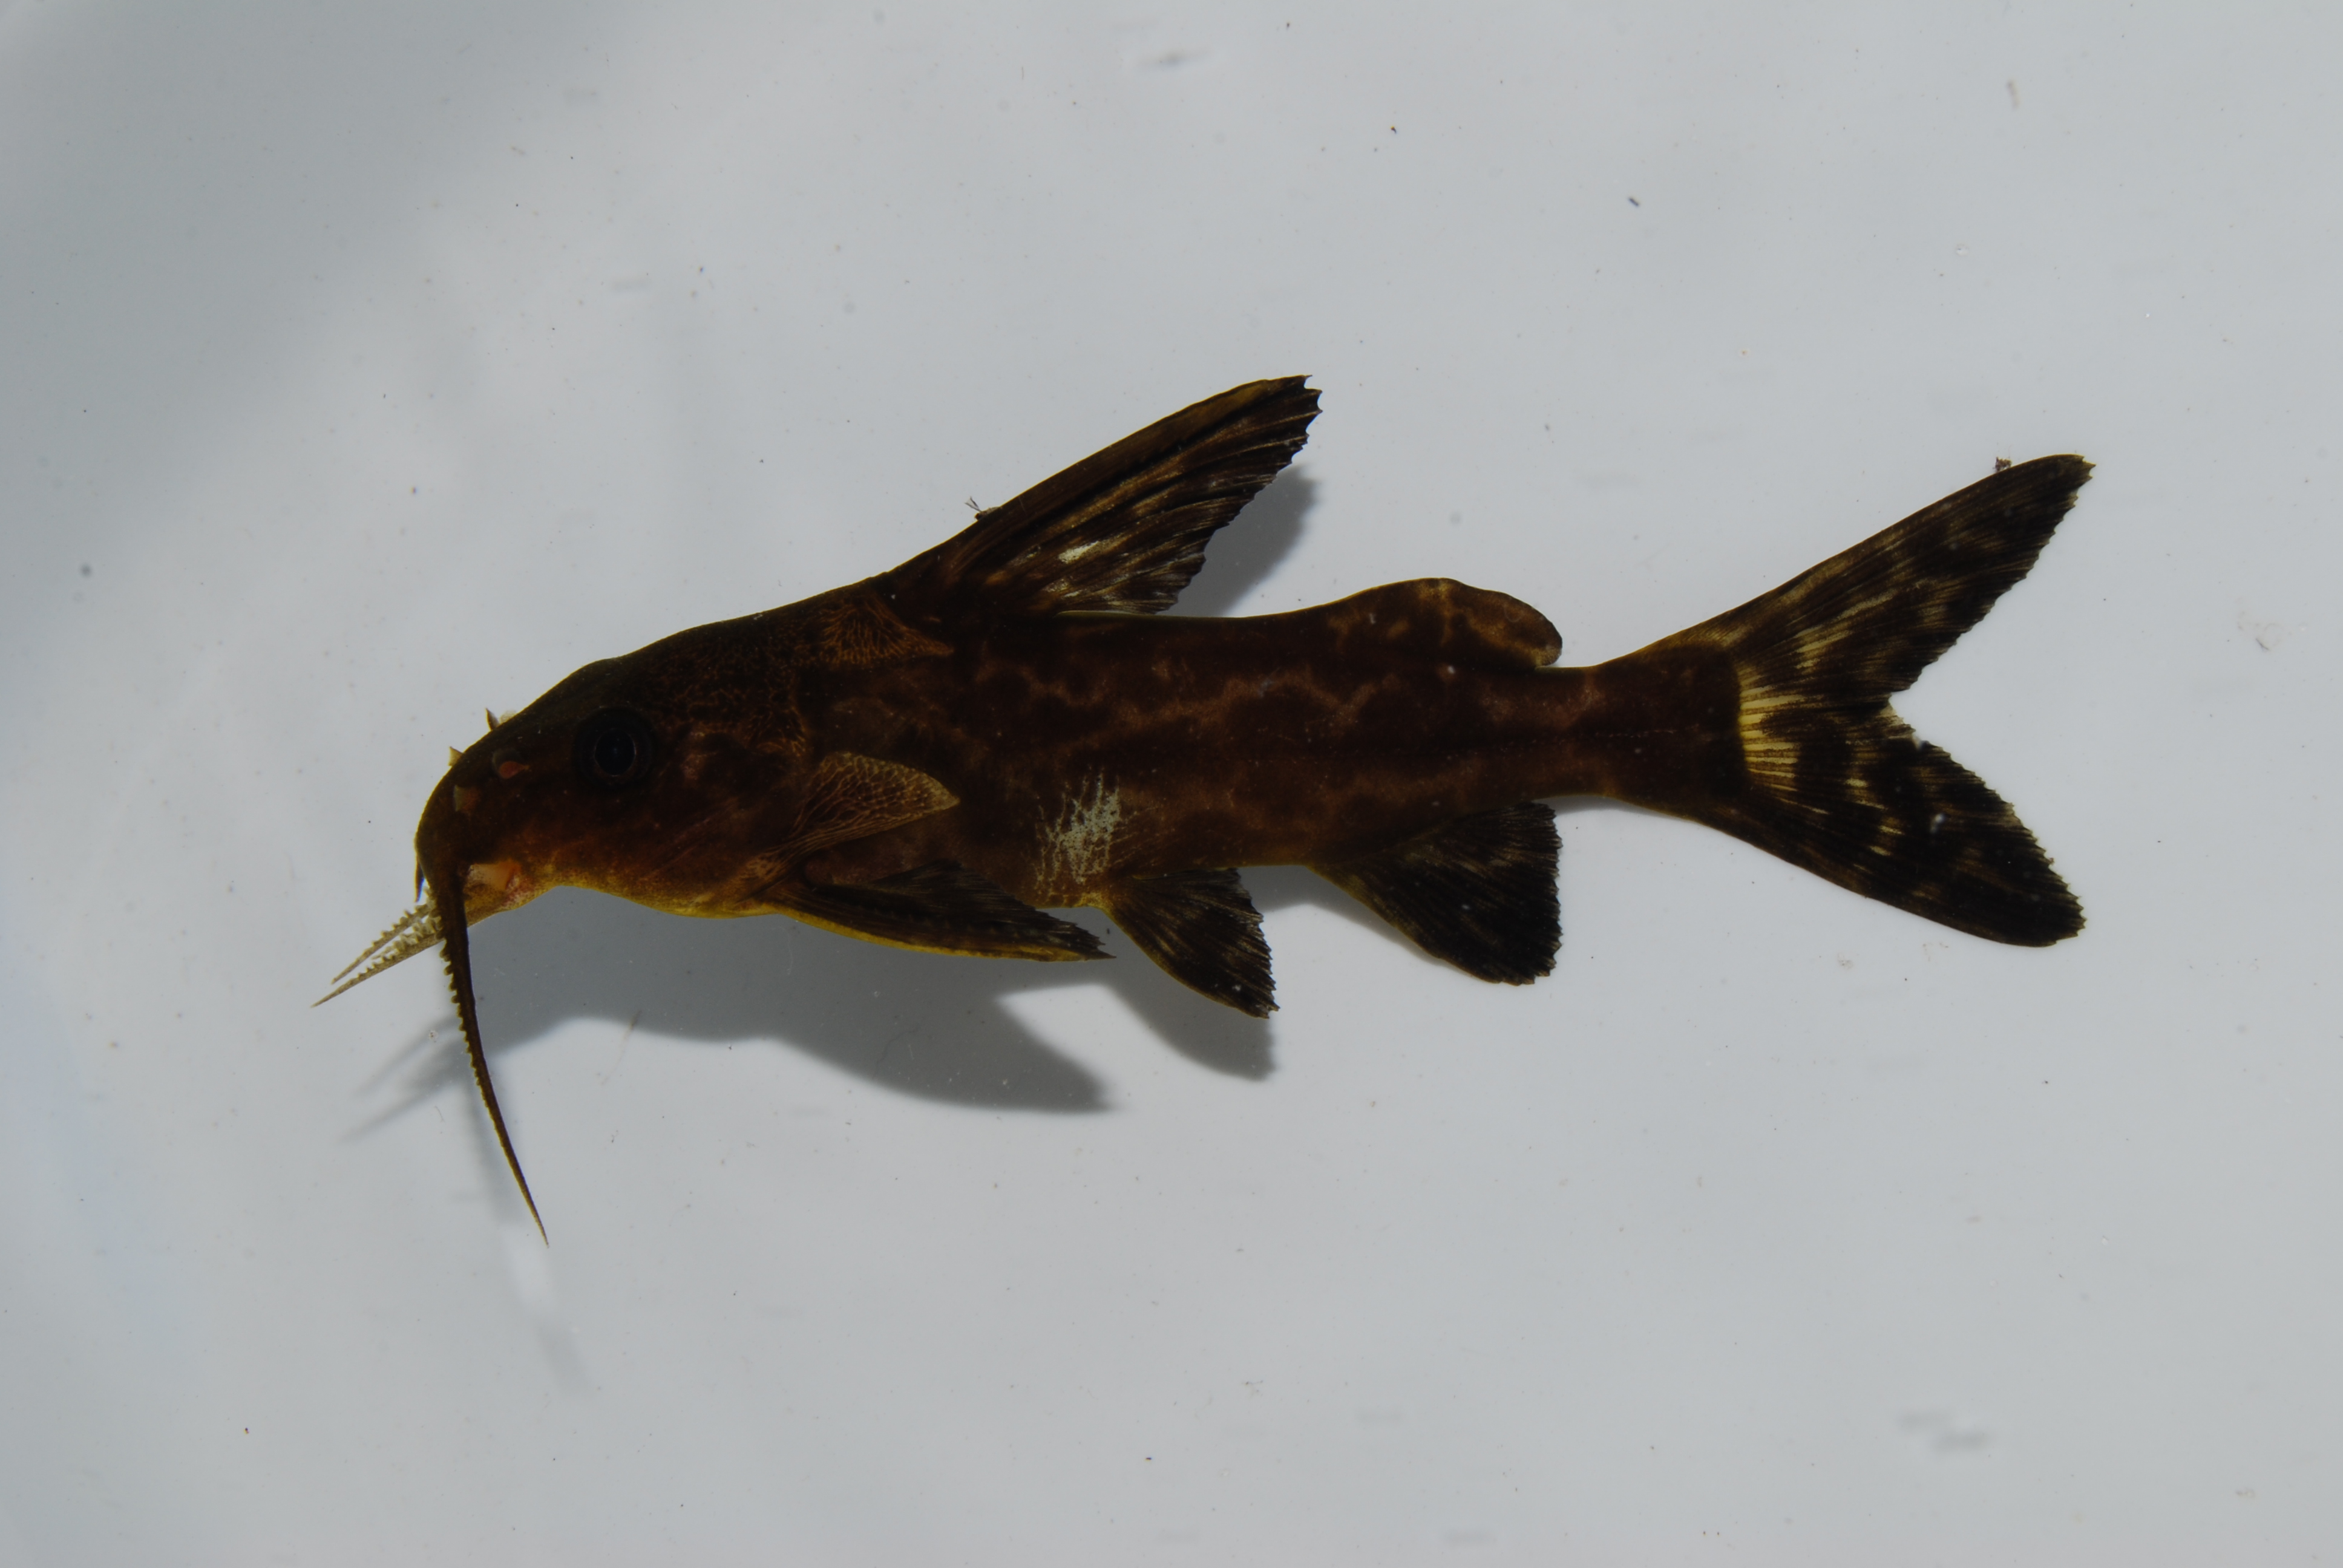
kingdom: Animalia
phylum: Chordata
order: Siluriformes
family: Mochokidae
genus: Synodontis
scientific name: Synodontis macrostigma
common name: Largespot squeaker
